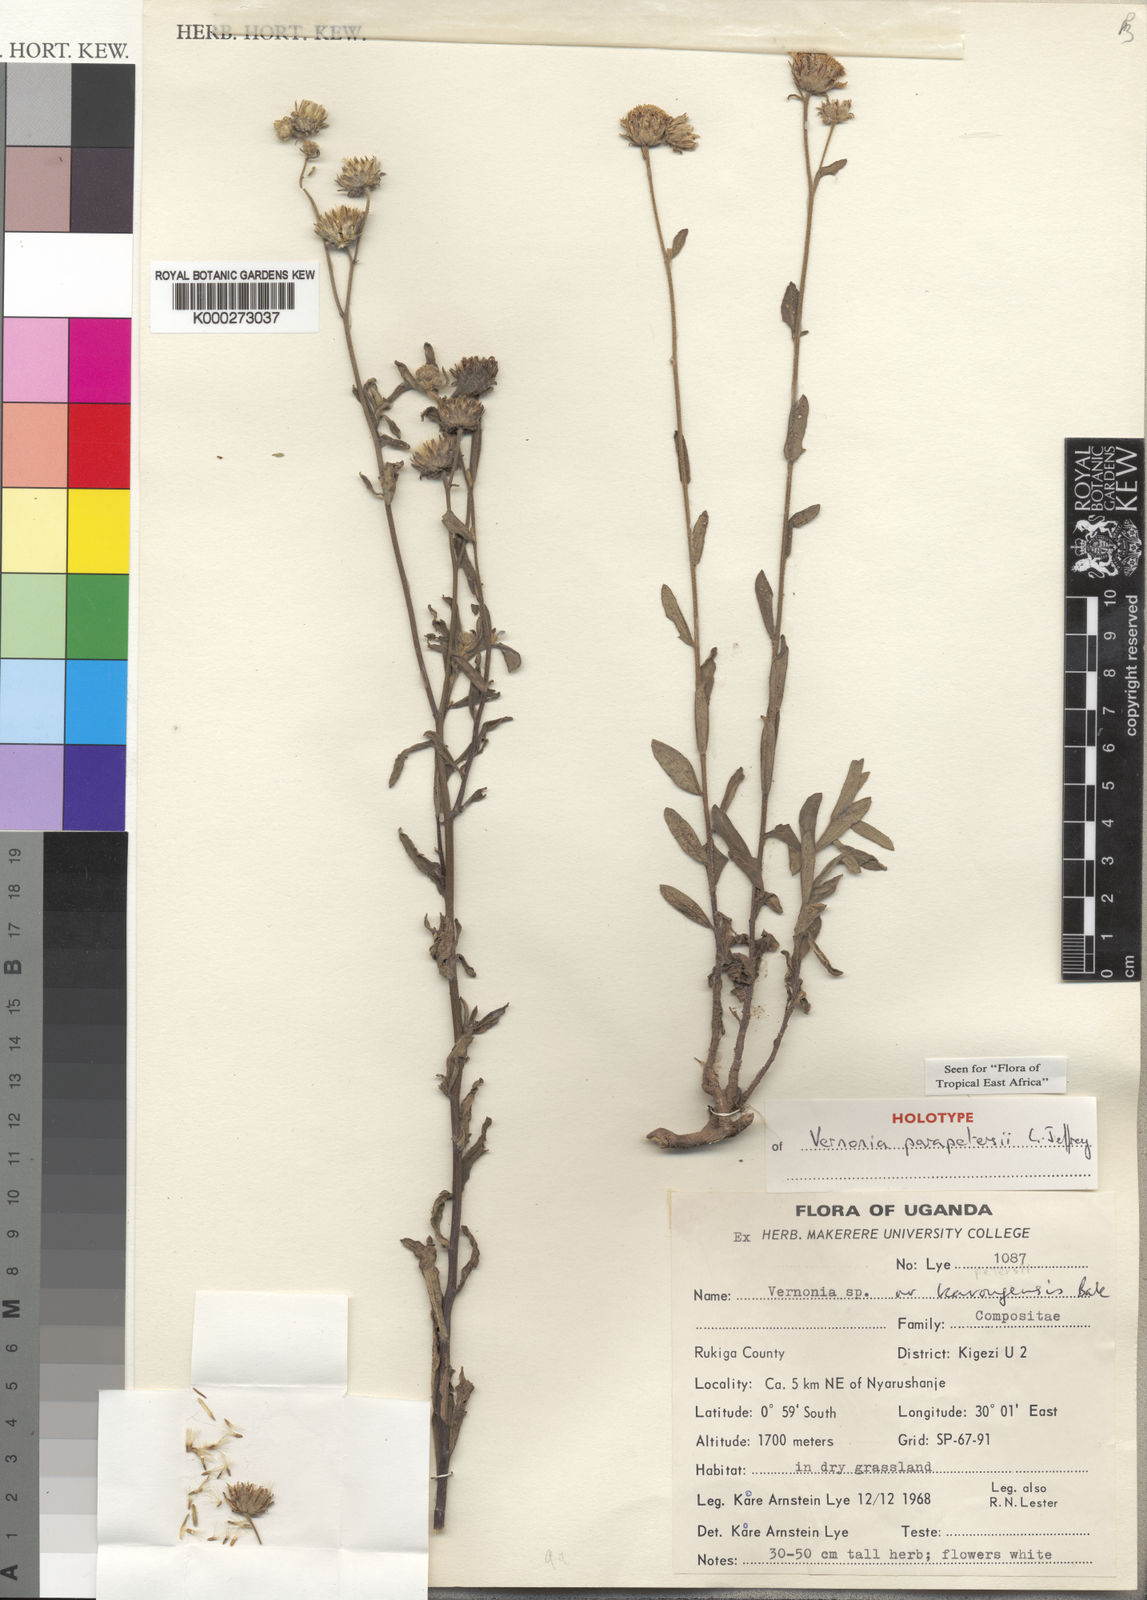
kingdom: Plantae
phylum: Tracheophyta
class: Magnoliopsida
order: Asterales
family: Asteraceae
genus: Vernonia
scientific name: Vernonia parapetersii
